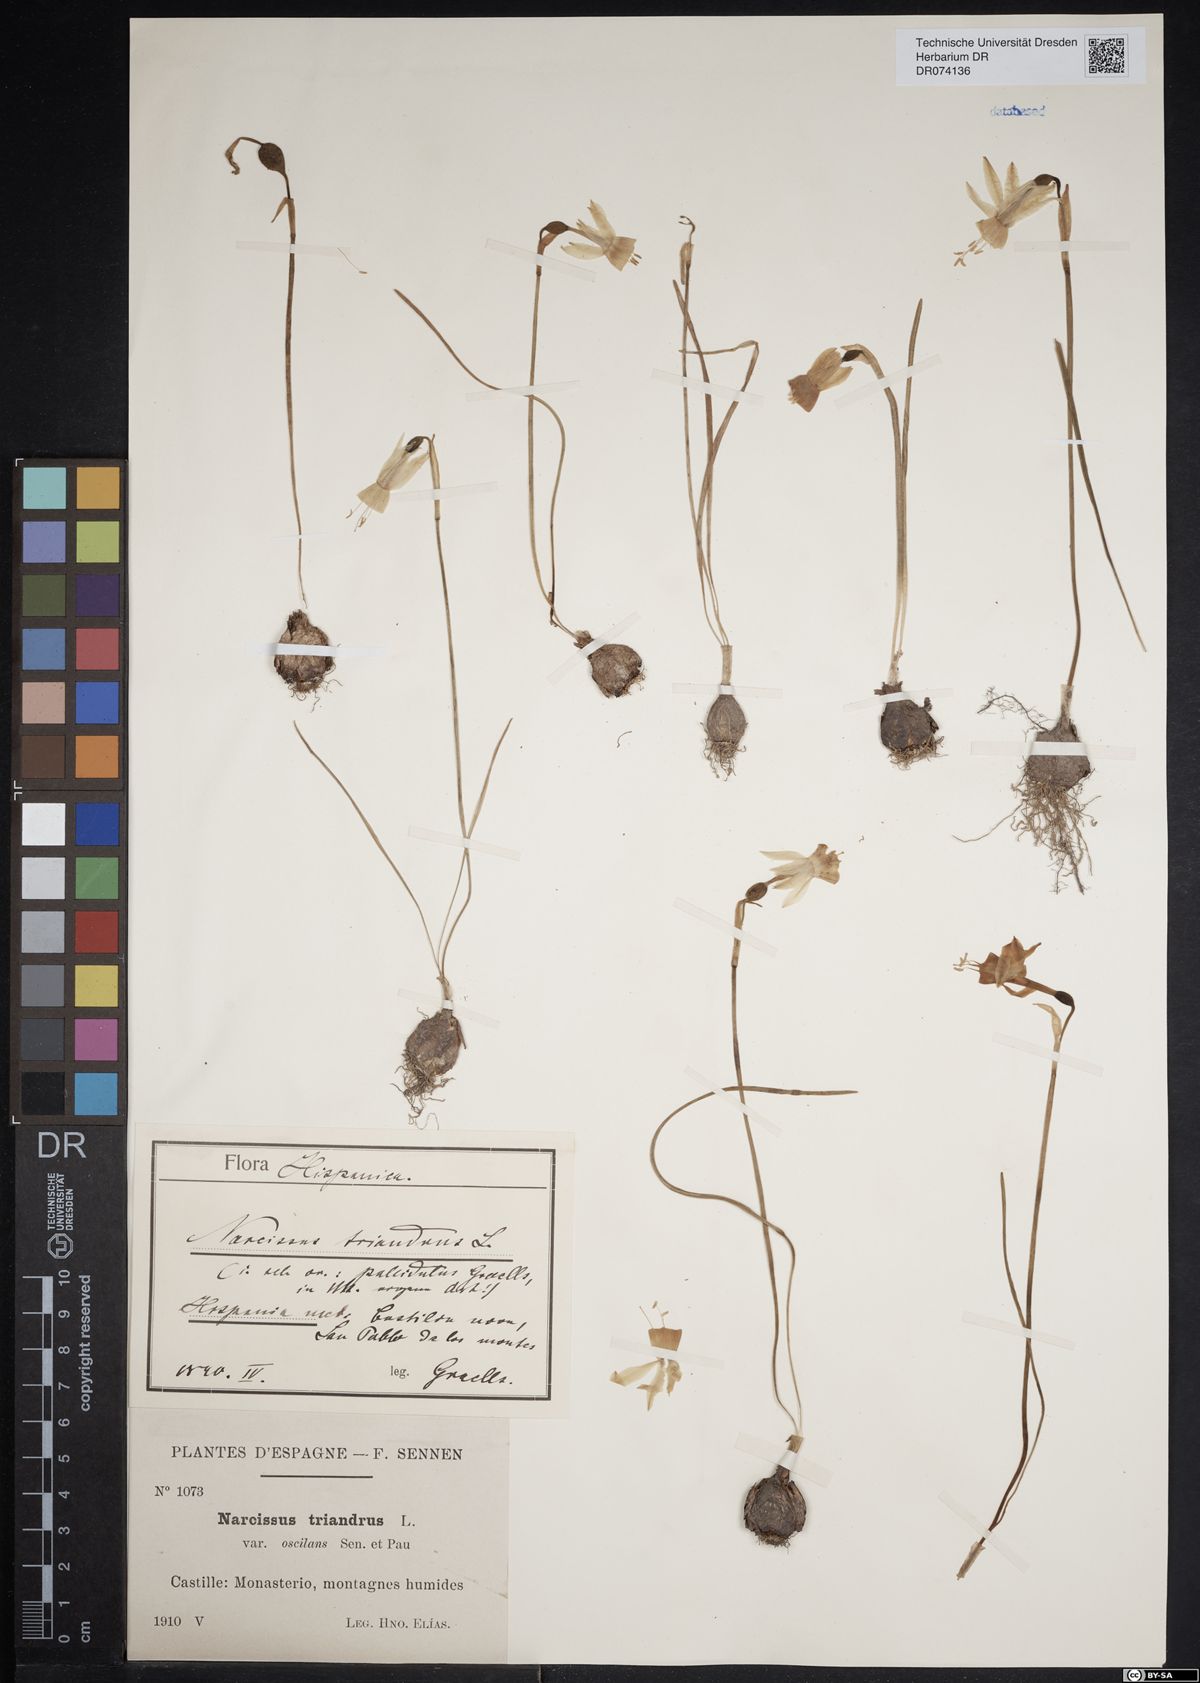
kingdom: Plantae
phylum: Tracheophyta
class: Liliopsida
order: Asparagales
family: Amaryllidaceae
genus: Narcissus
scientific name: Narcissus triandrus
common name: Angel's-tears
